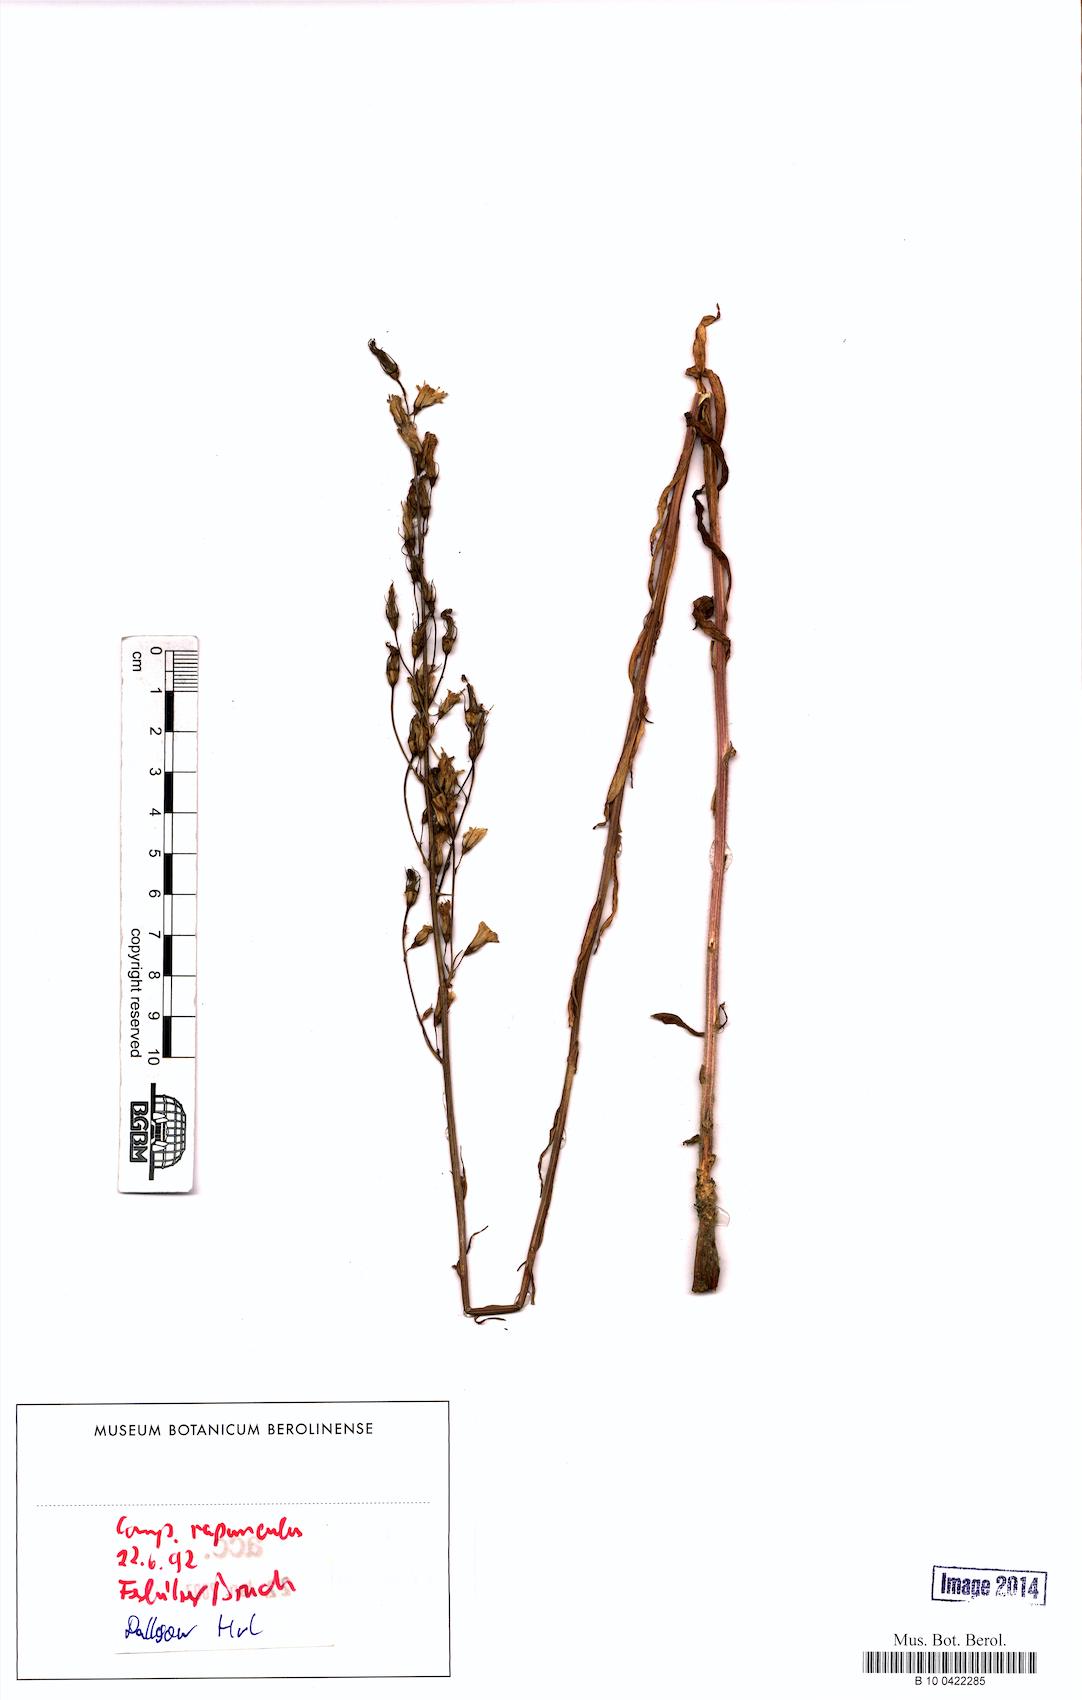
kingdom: Plantae
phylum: Tracheophyta
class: Magnoliopsida
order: Asterales
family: Campanulaceae
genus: Campanula
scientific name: Campanula rapunculoides
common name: Creeping bellflower
